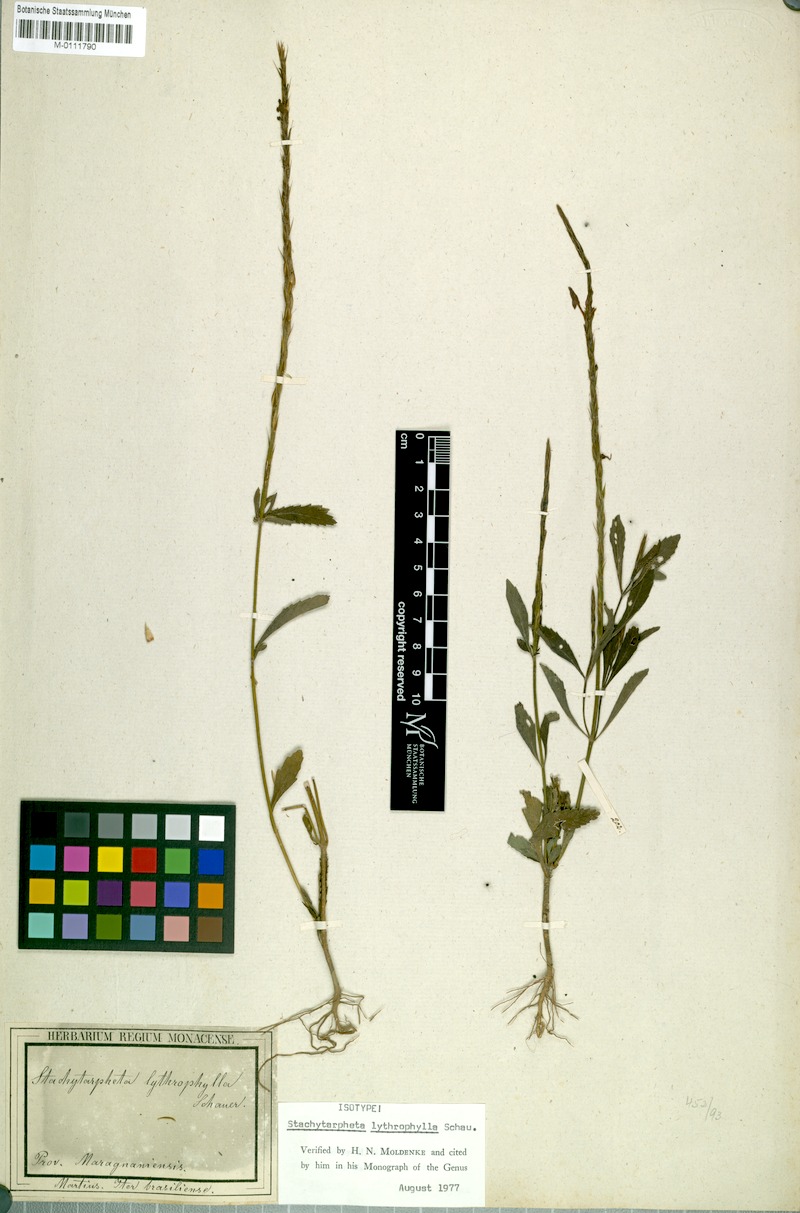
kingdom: Plantae
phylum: Tracheophyta
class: Magnoliopsida
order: Lamiales
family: Verbenaceae
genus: Stachytarpheta
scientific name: Stachytarpheta lythrophylla
